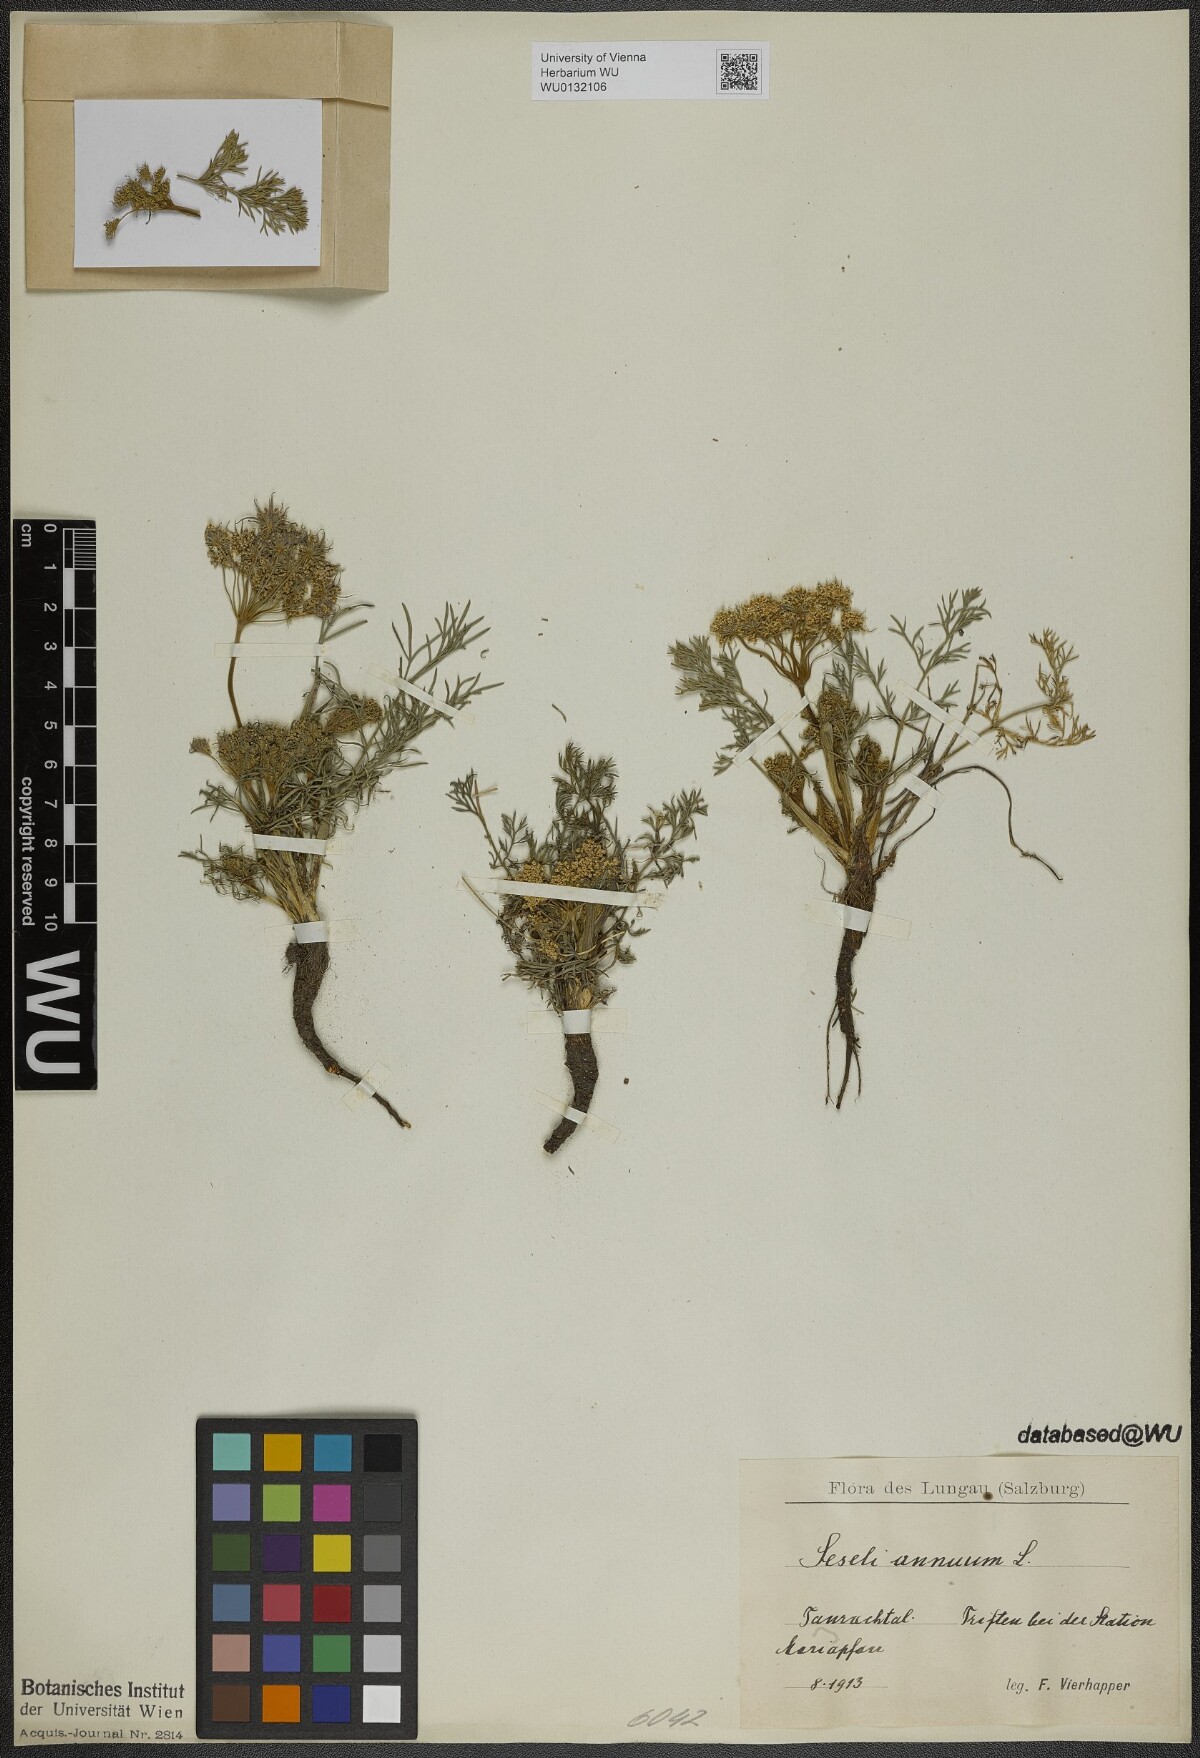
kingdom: Plantae
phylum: Tracheophyta
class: Magnoliopsida
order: Apiales
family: Apiaceae
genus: Seseli
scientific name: Seseli annuum
